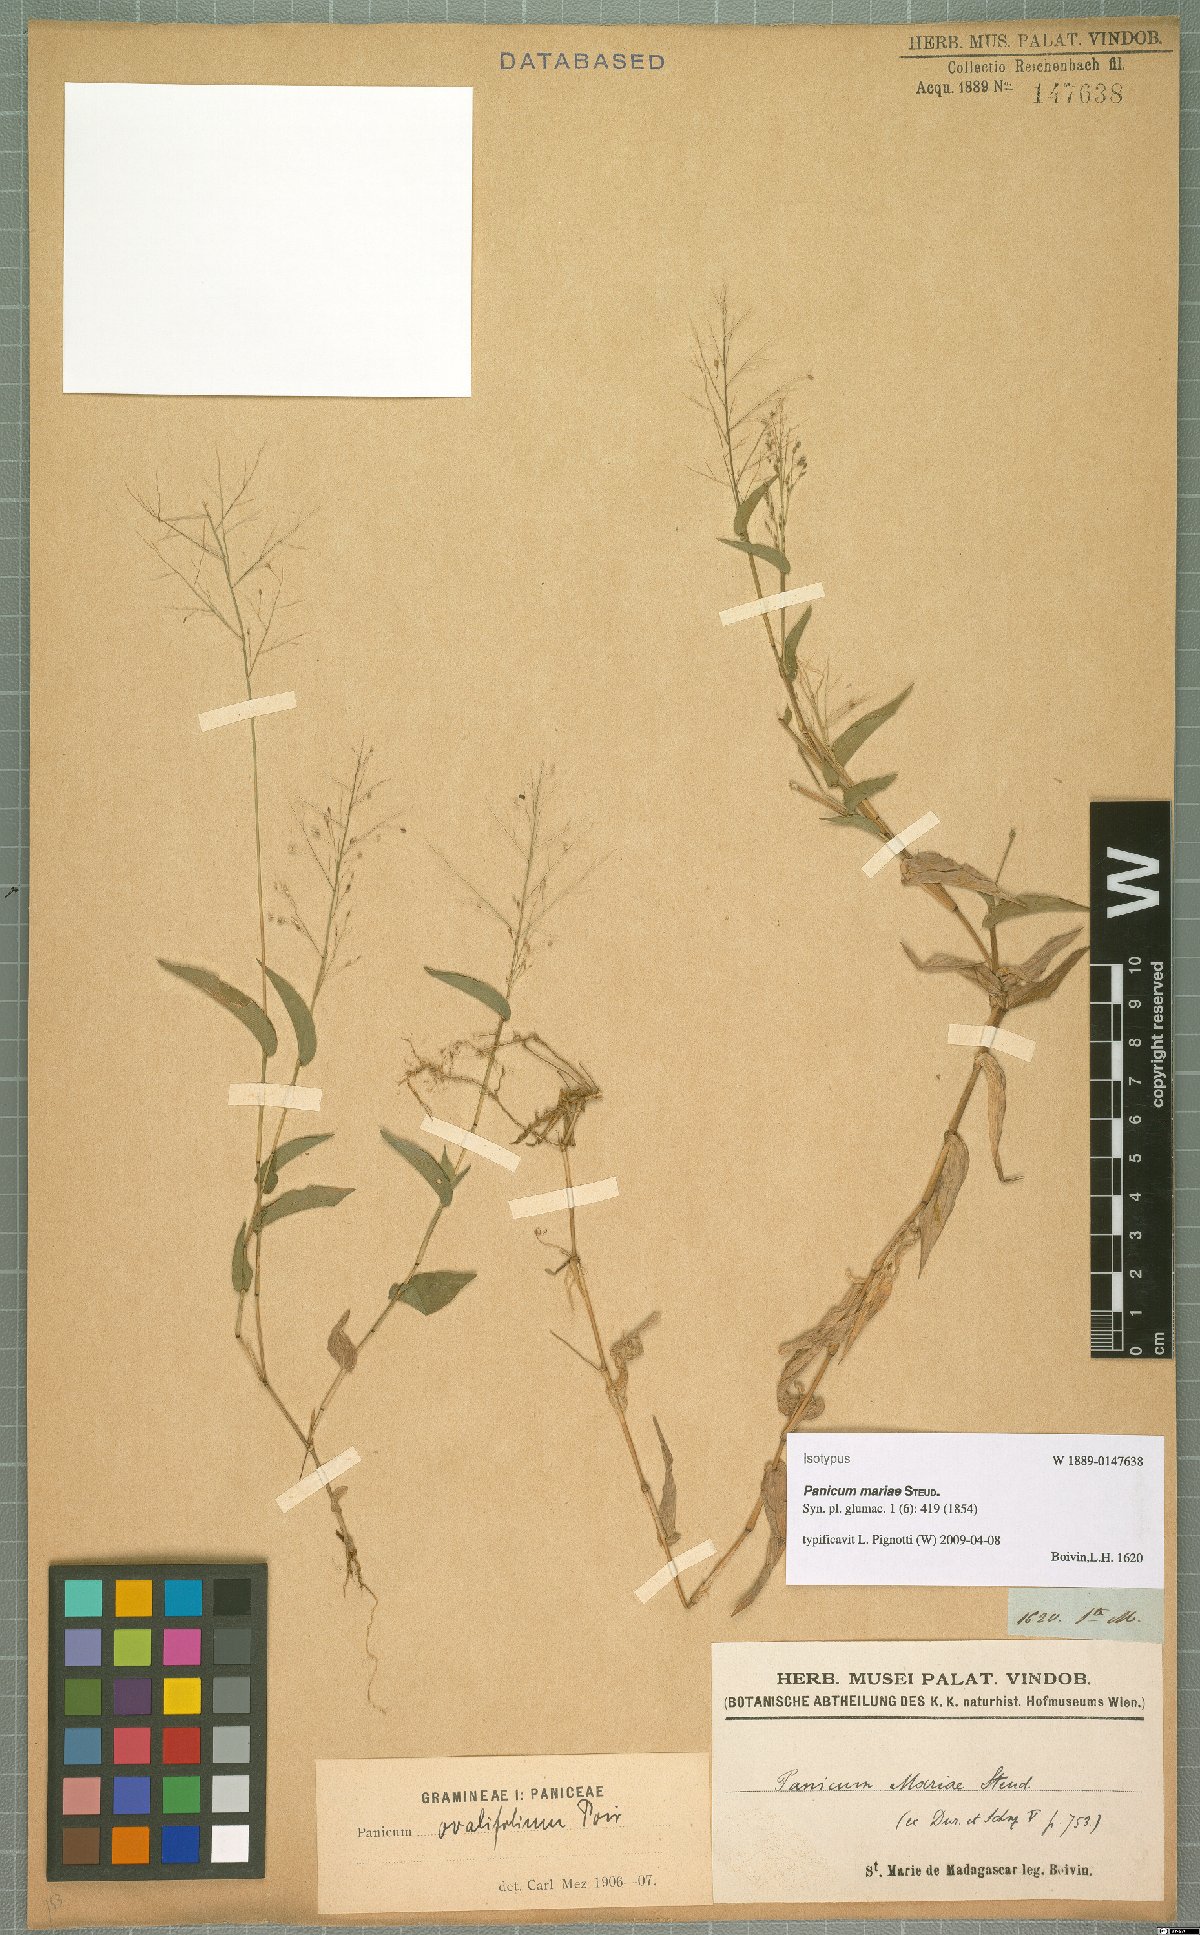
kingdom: Plantae
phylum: Tracheophyta
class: Liliopsida
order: Poales
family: Poaceae
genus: Panicum
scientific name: Panicum brevifolium
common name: Shortleaf panic grass
